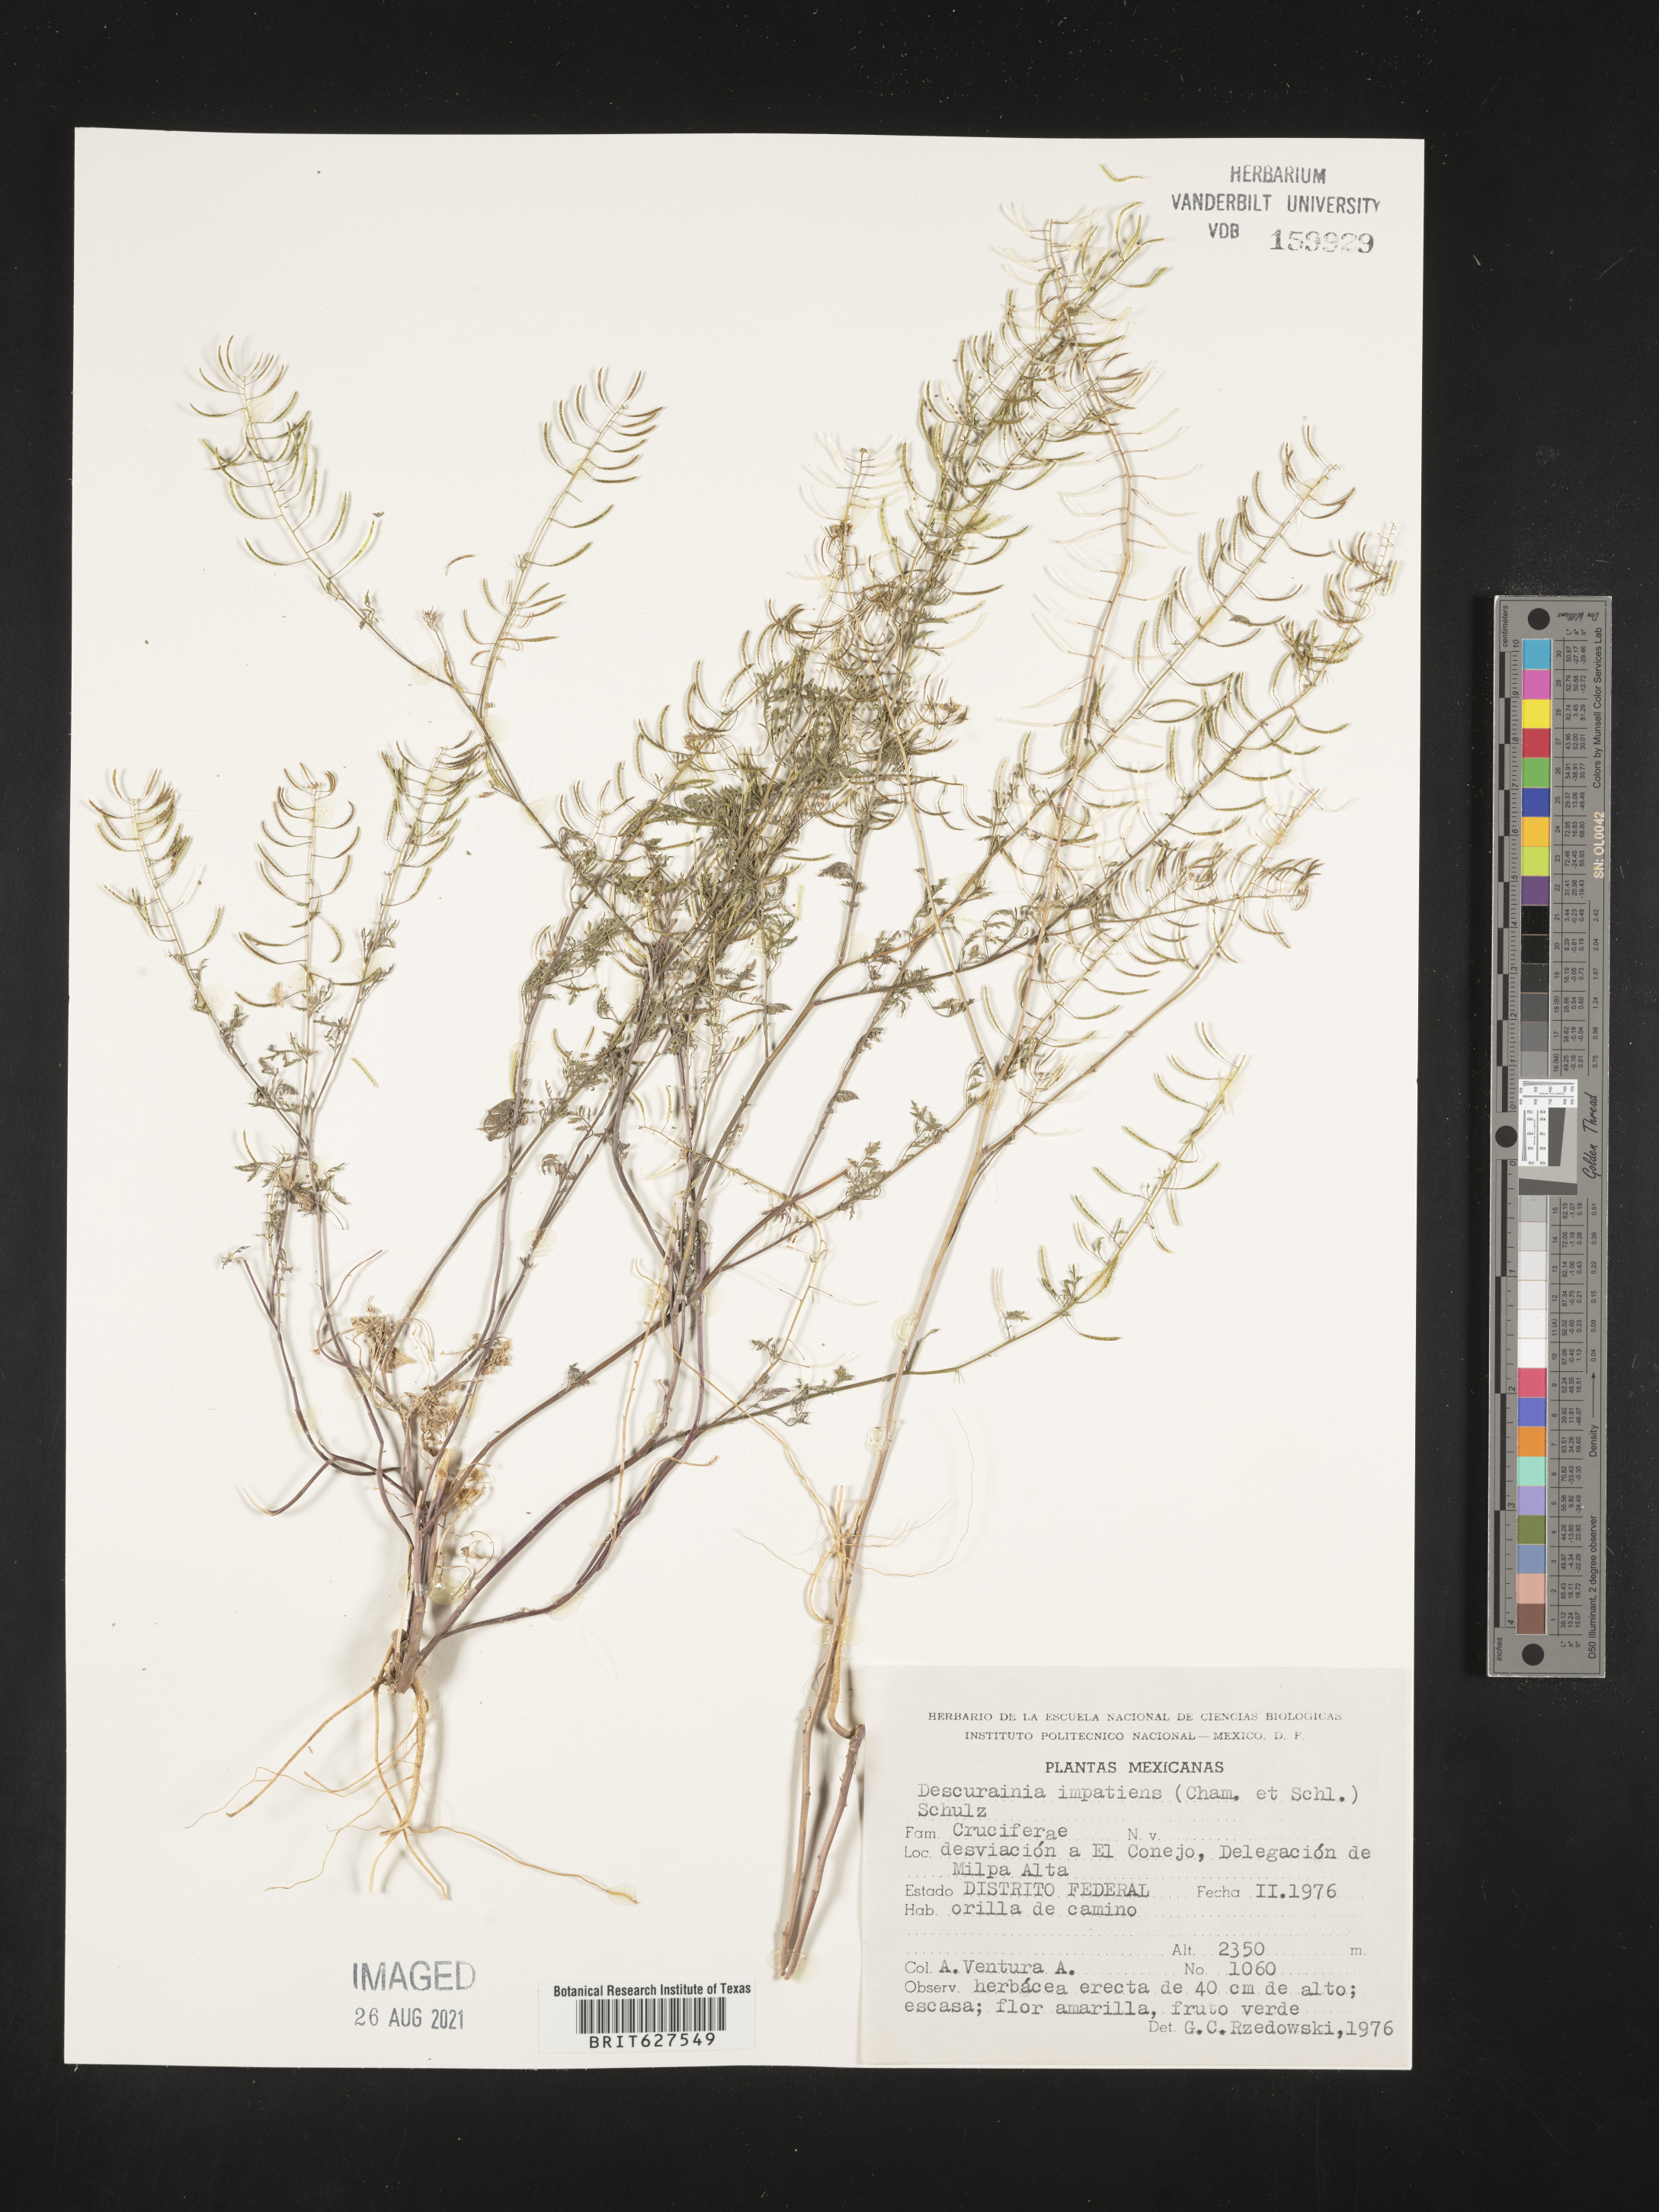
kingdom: Plantae
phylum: Tracheophyta
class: Magnoliopsida
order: Brassicales
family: Brassicaceae
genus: Descurainia
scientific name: Descurainia
